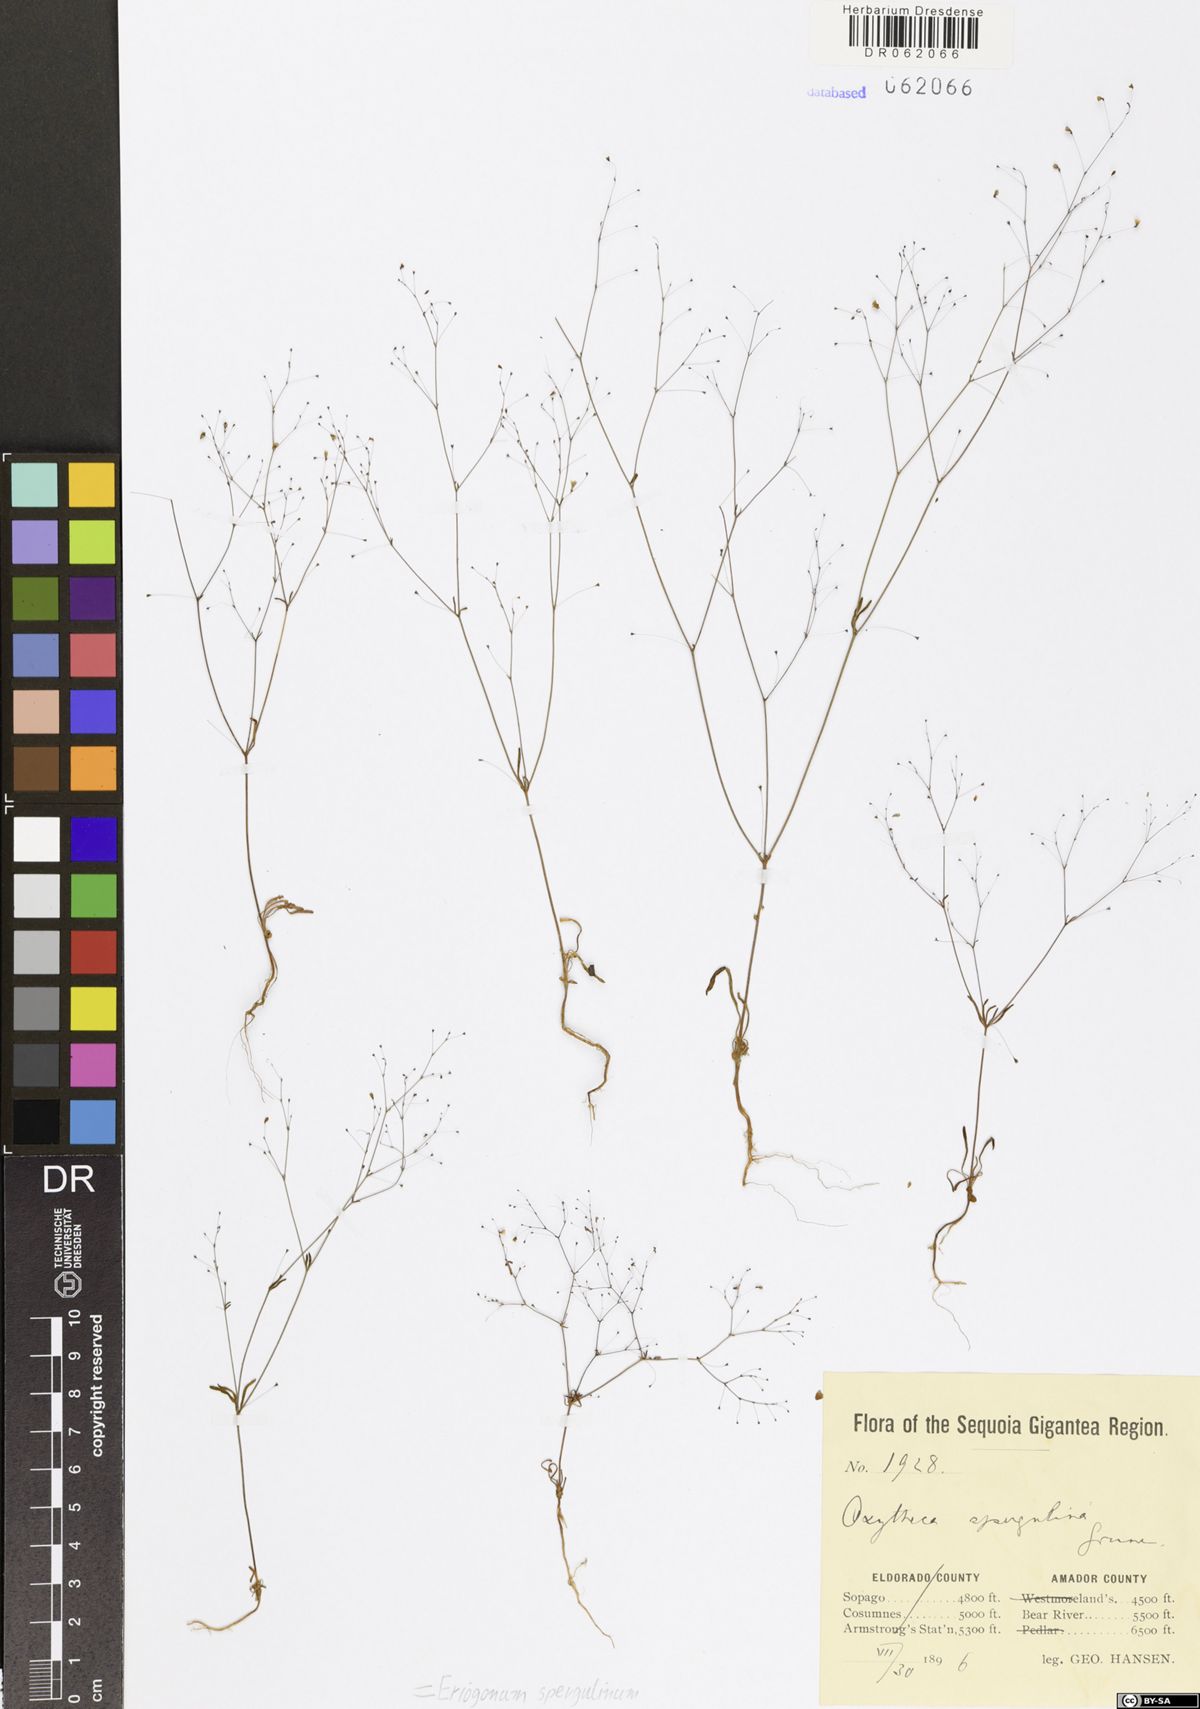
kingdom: Plantae
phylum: Tracheophyta
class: Magnoliopsida
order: Caryophyllales
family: Polygonaceae
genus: Eriogonum
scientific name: Eriogonum spergulinum
